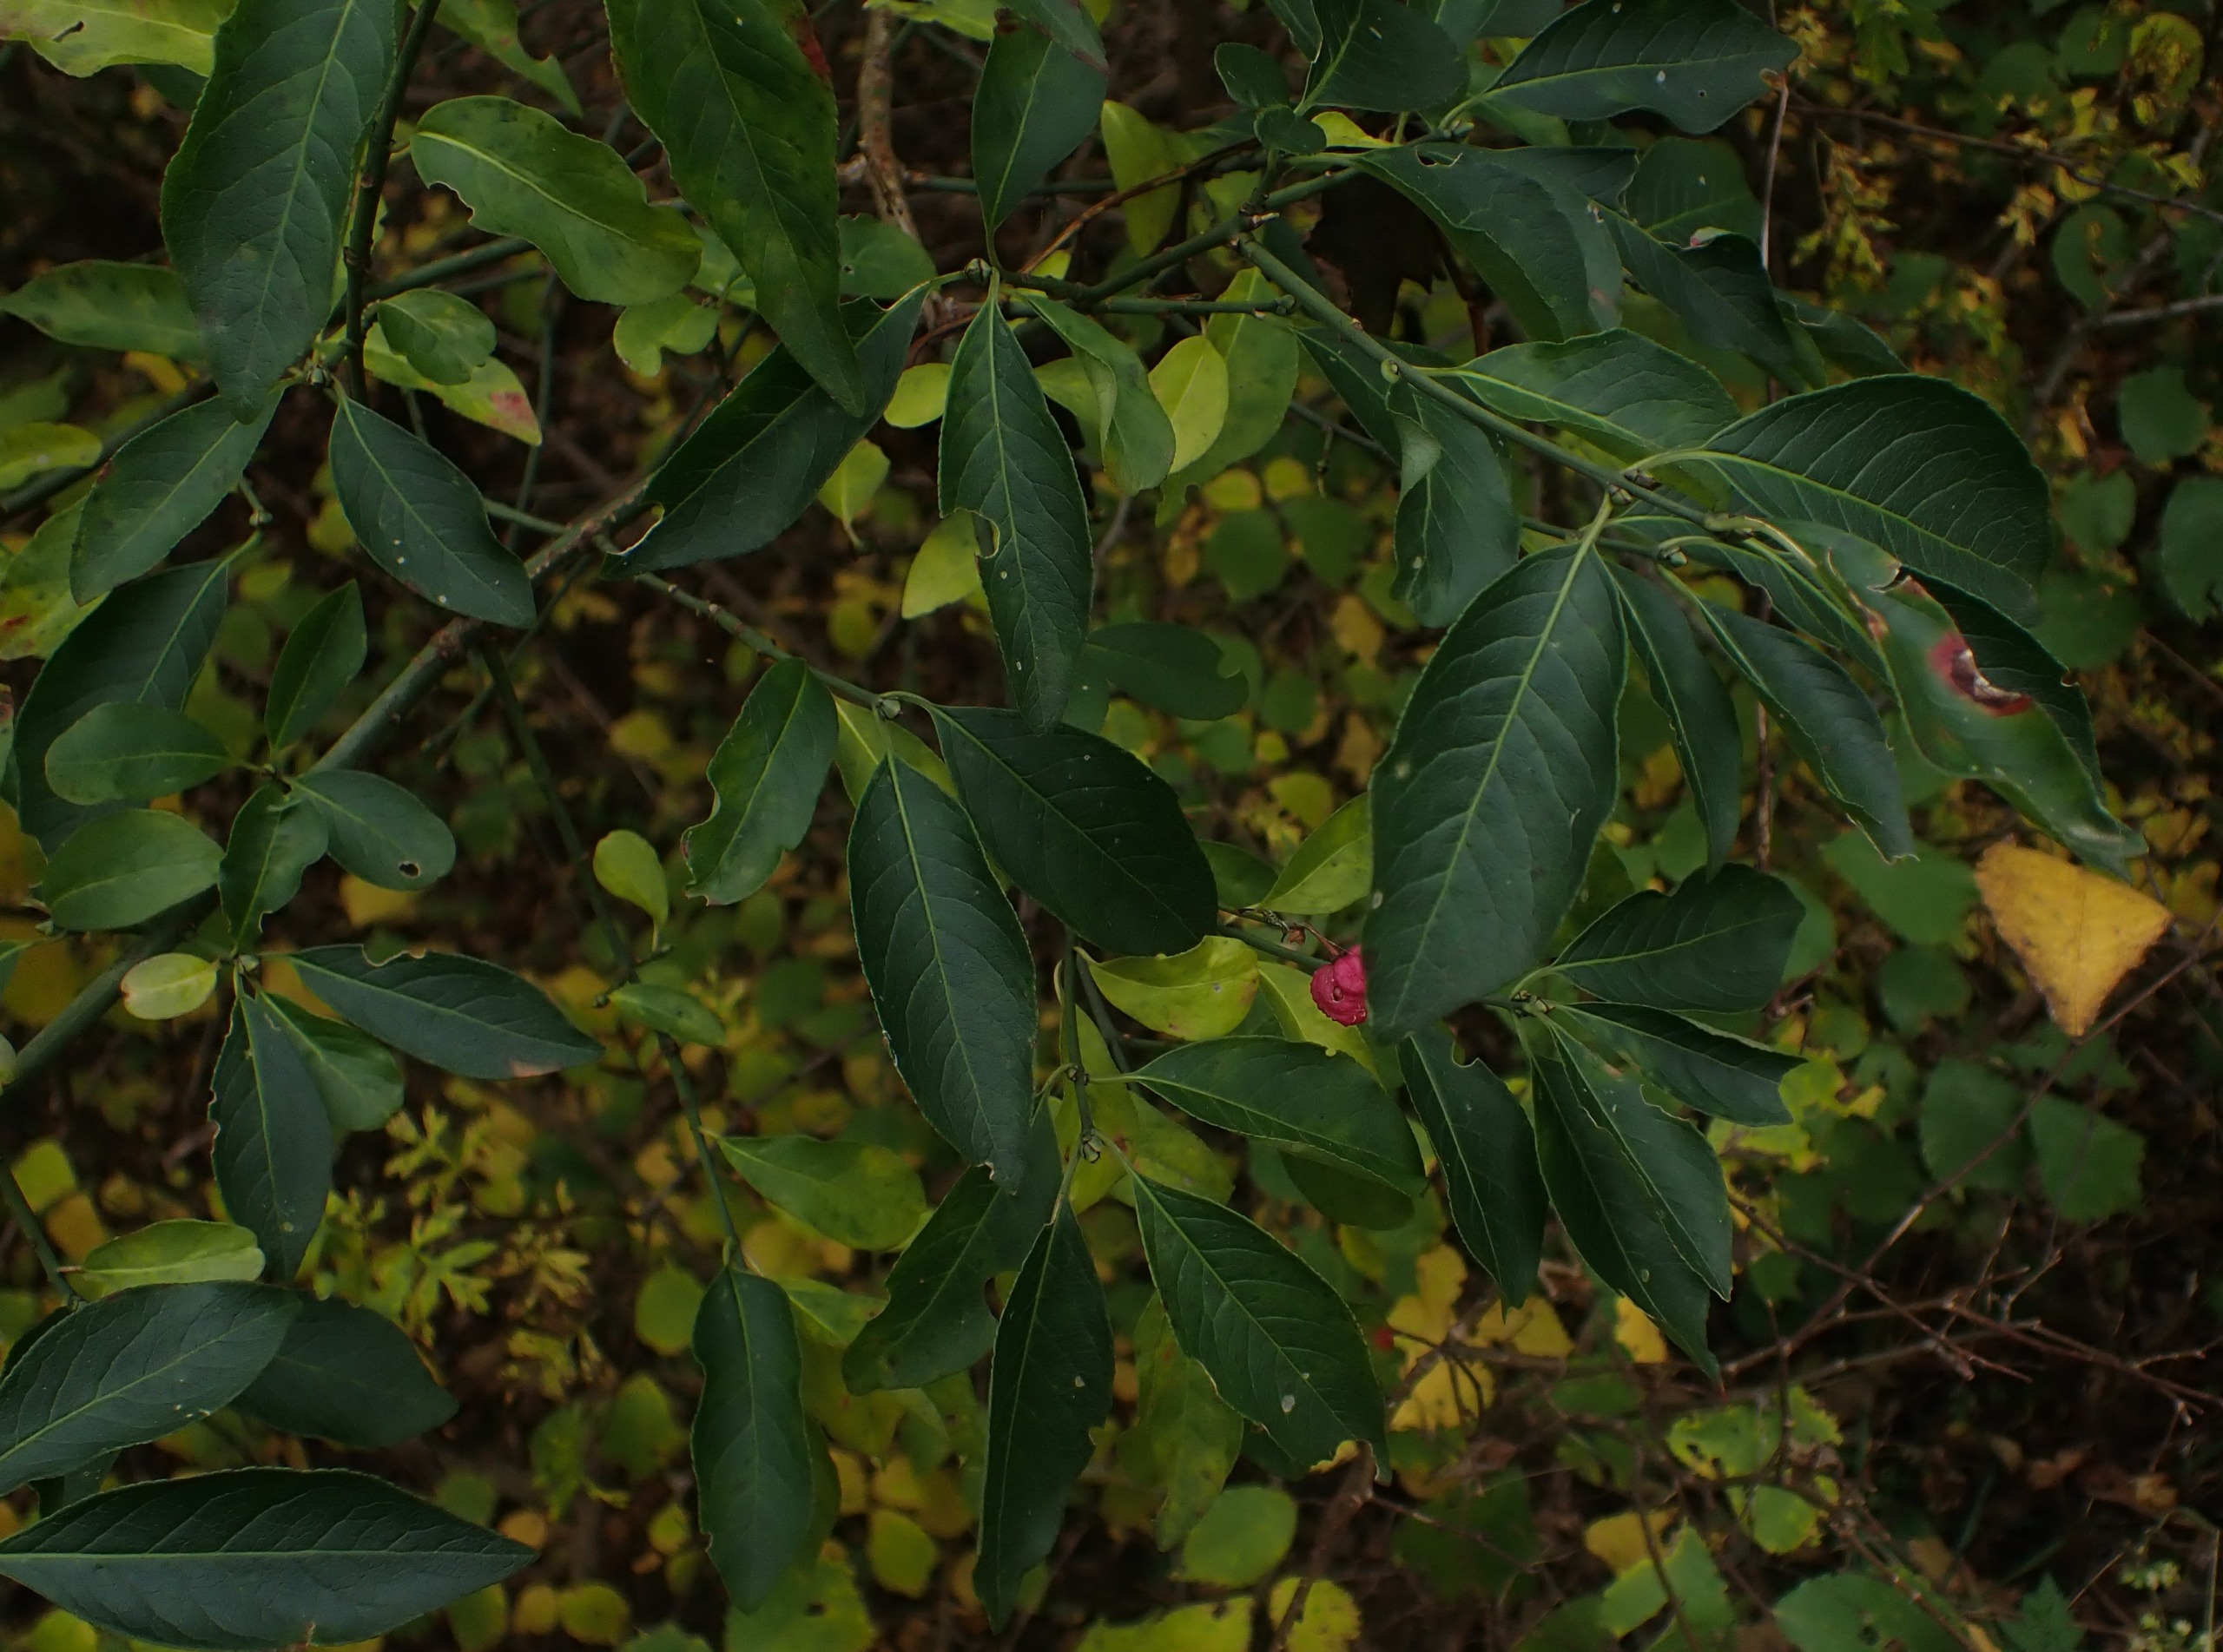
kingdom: Plantae
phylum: Tracheophyta
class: Magnoliopsida
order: Celastrales
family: Celastraceae
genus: Euonymus
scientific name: Euonymus europaeus
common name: Benved
